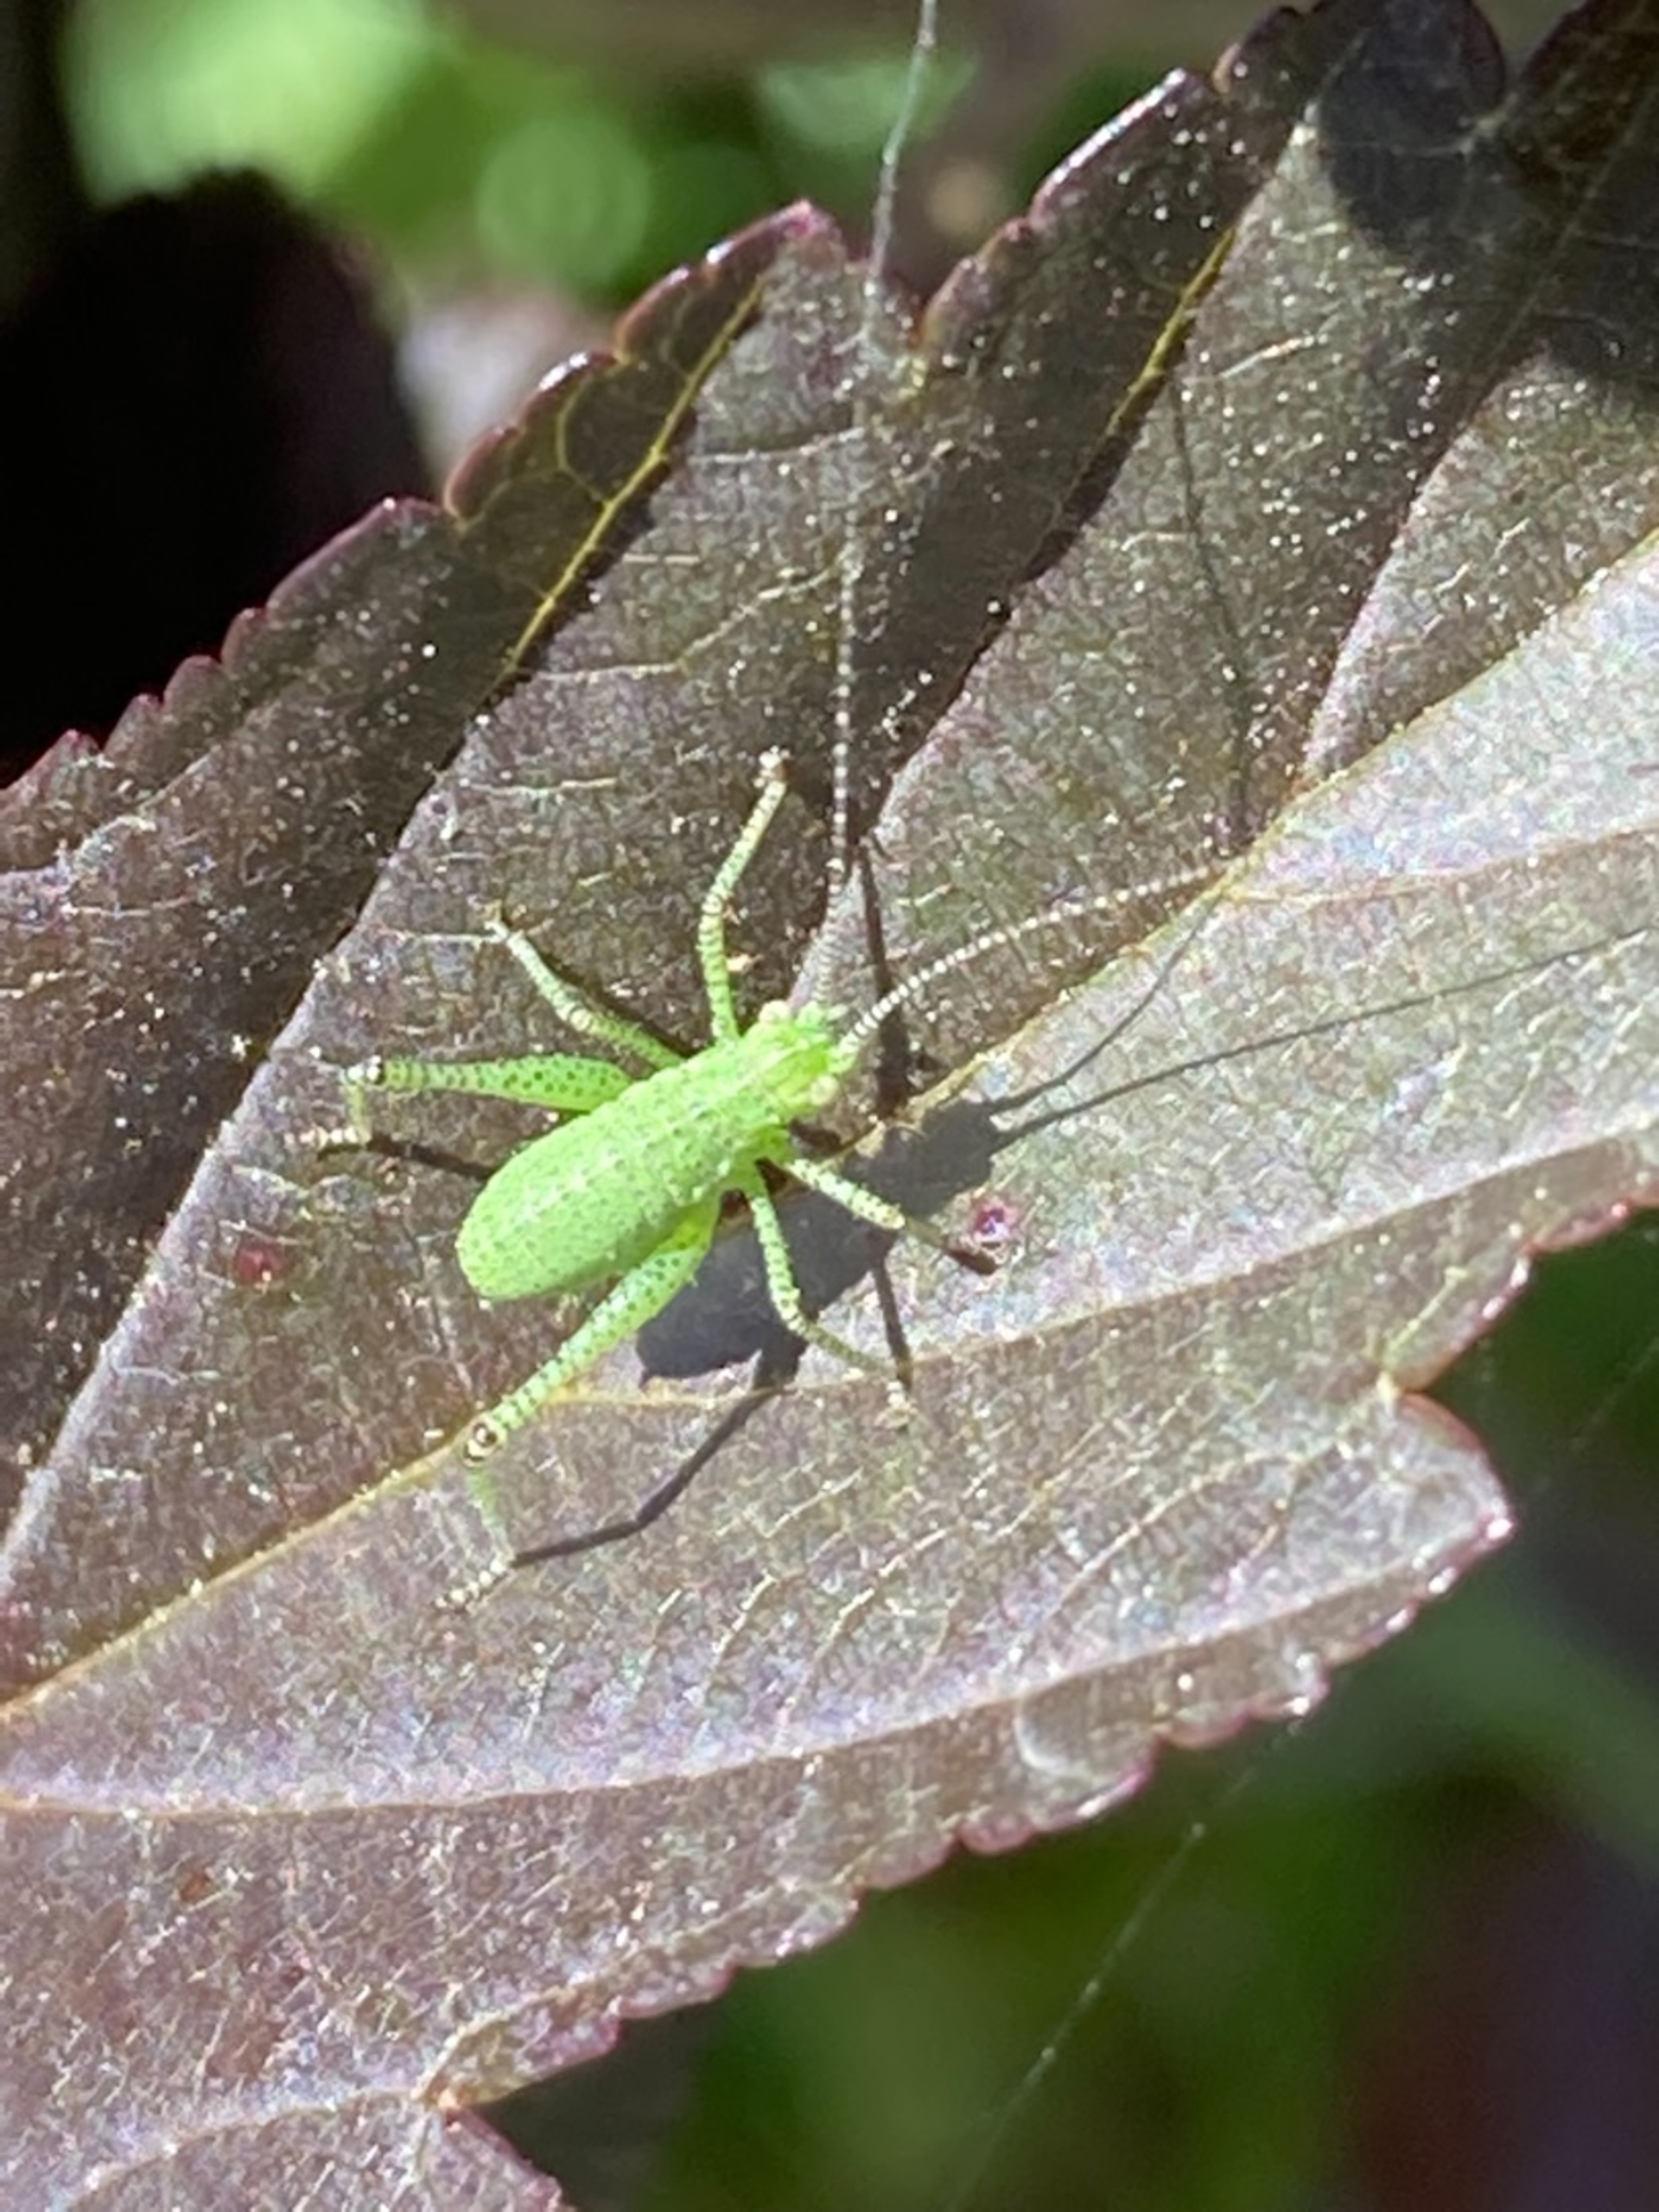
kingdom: Animalia
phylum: Arthropoda
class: Insecta
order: Orthoptera
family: Tettigoniidae
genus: Leptophyes
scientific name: Leptophyes punctatissima
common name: Krumknivgræshoppe
